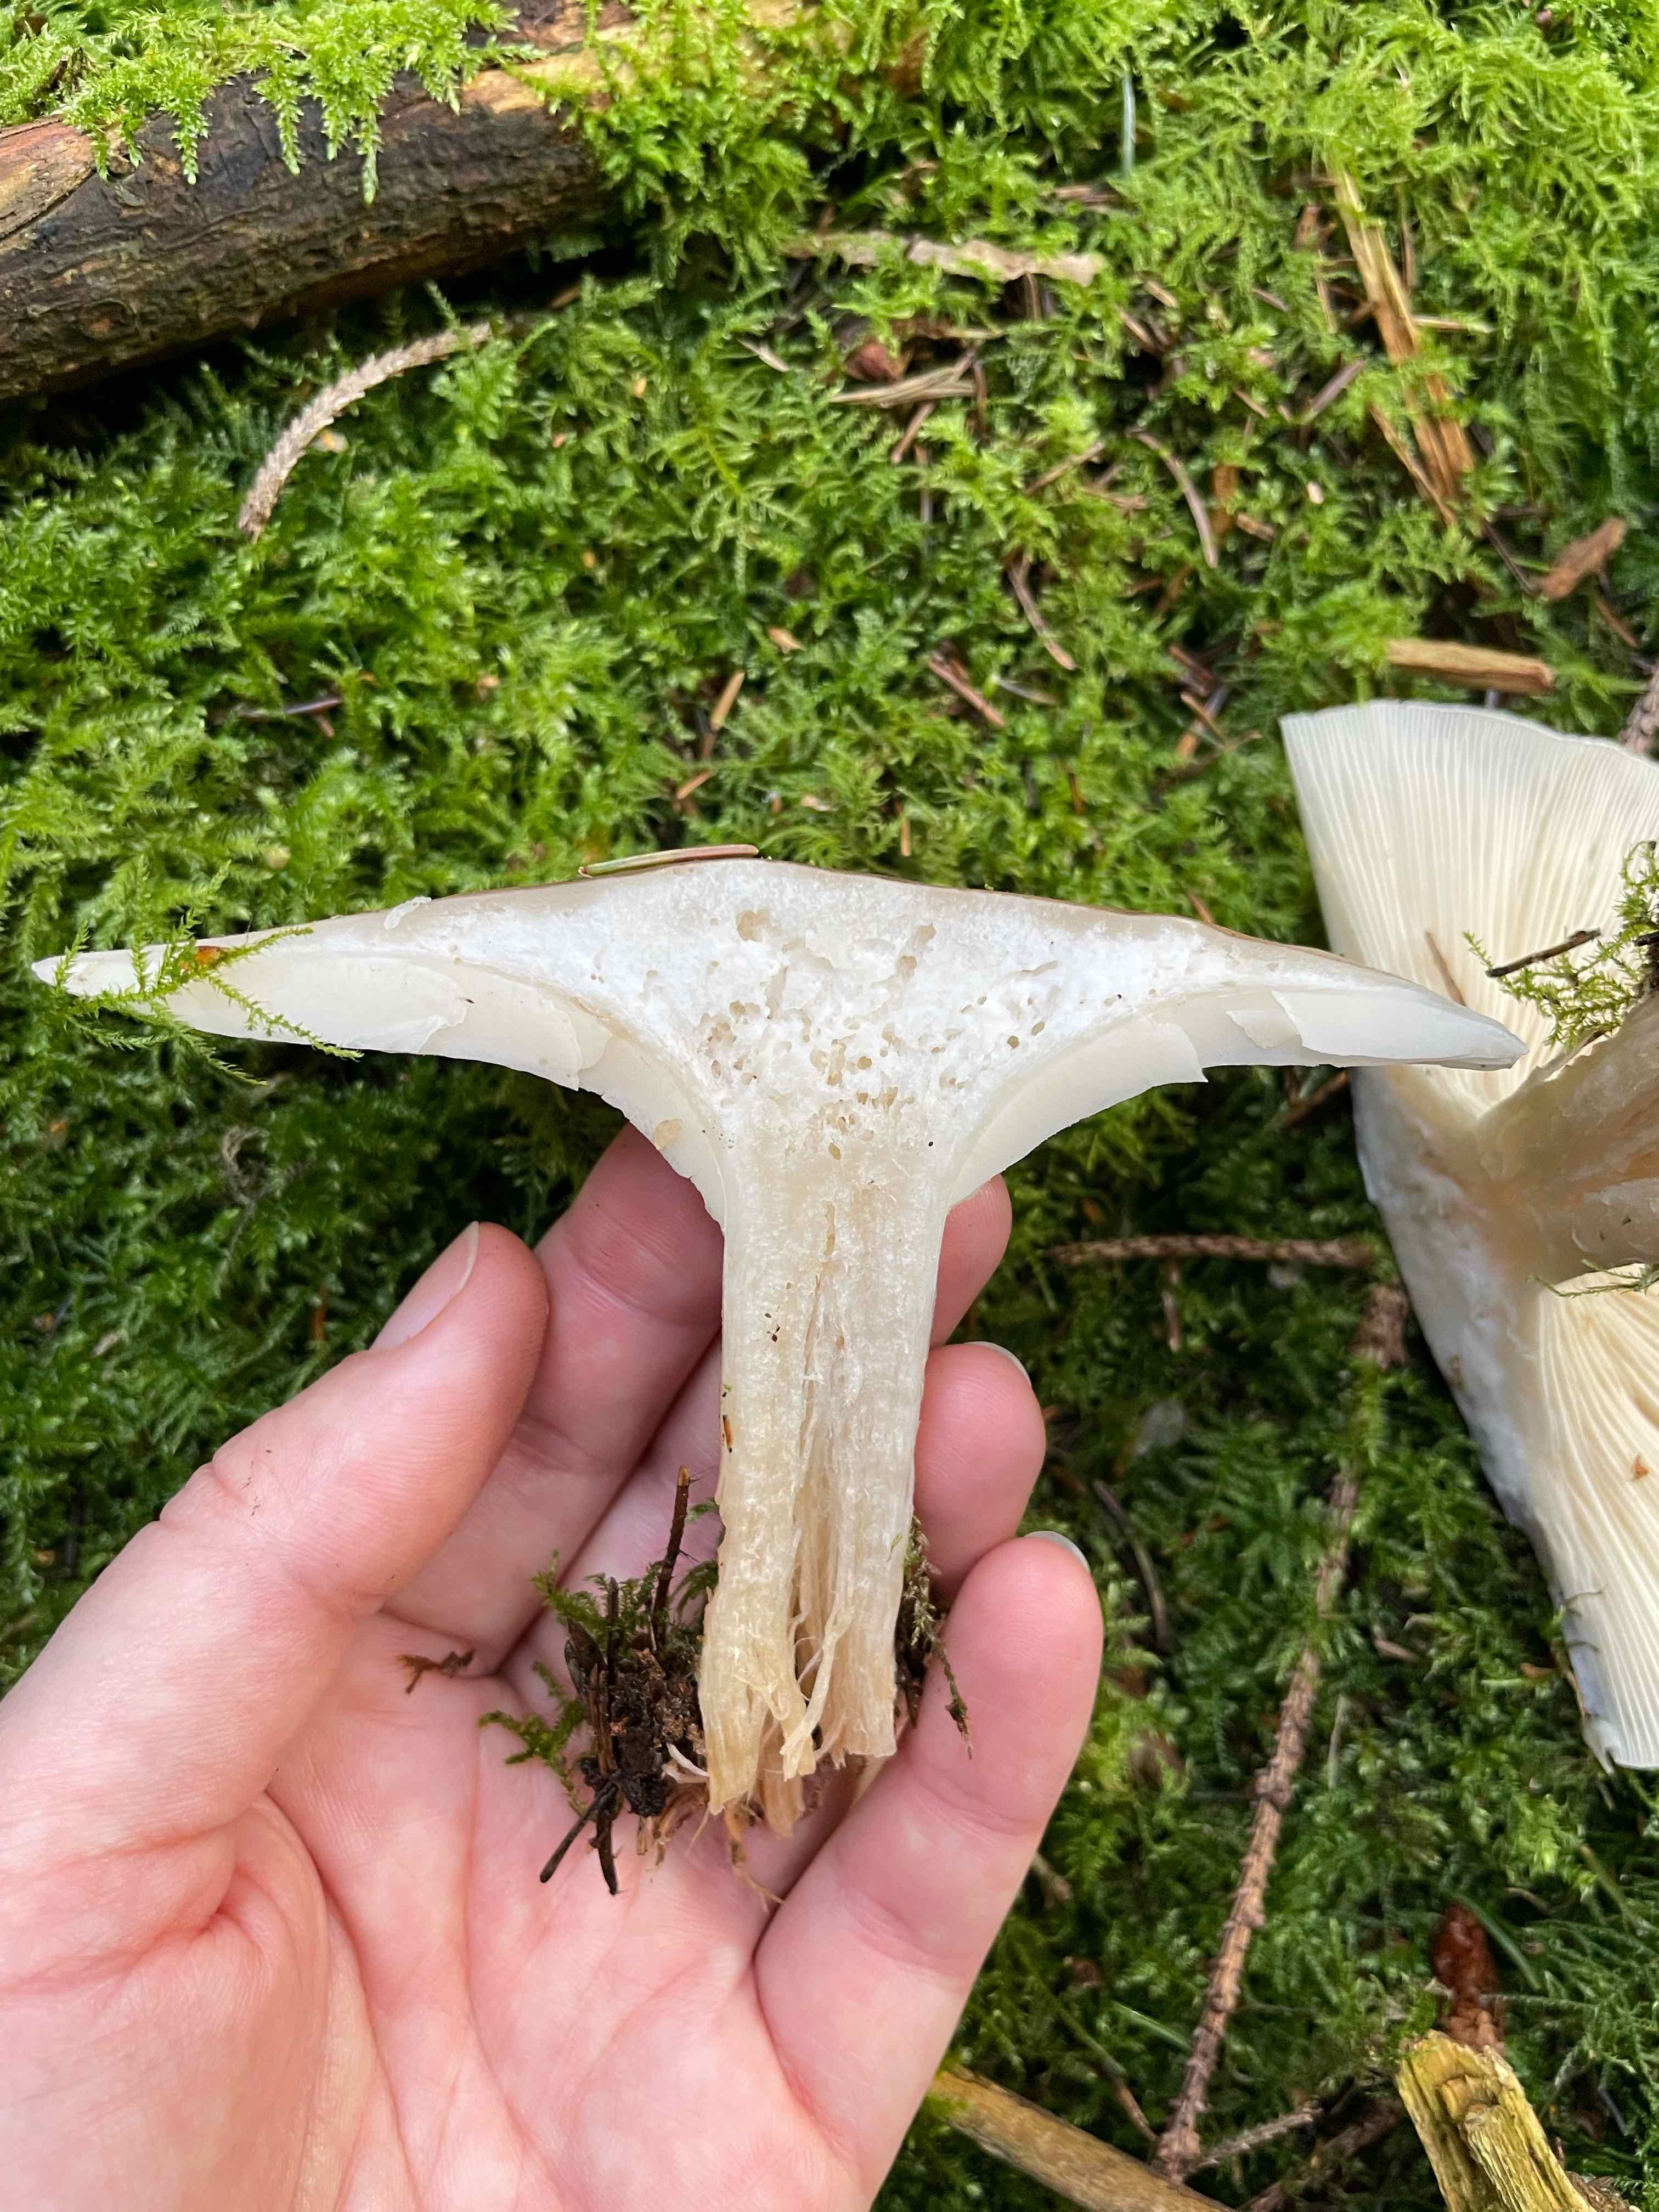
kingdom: Fungi
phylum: Basidiomycota
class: Agaricomycetes
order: Agaricales
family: Tricholomataceae
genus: Clitocybe
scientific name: Clitocybe nebularis
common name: tåge-tragthat
